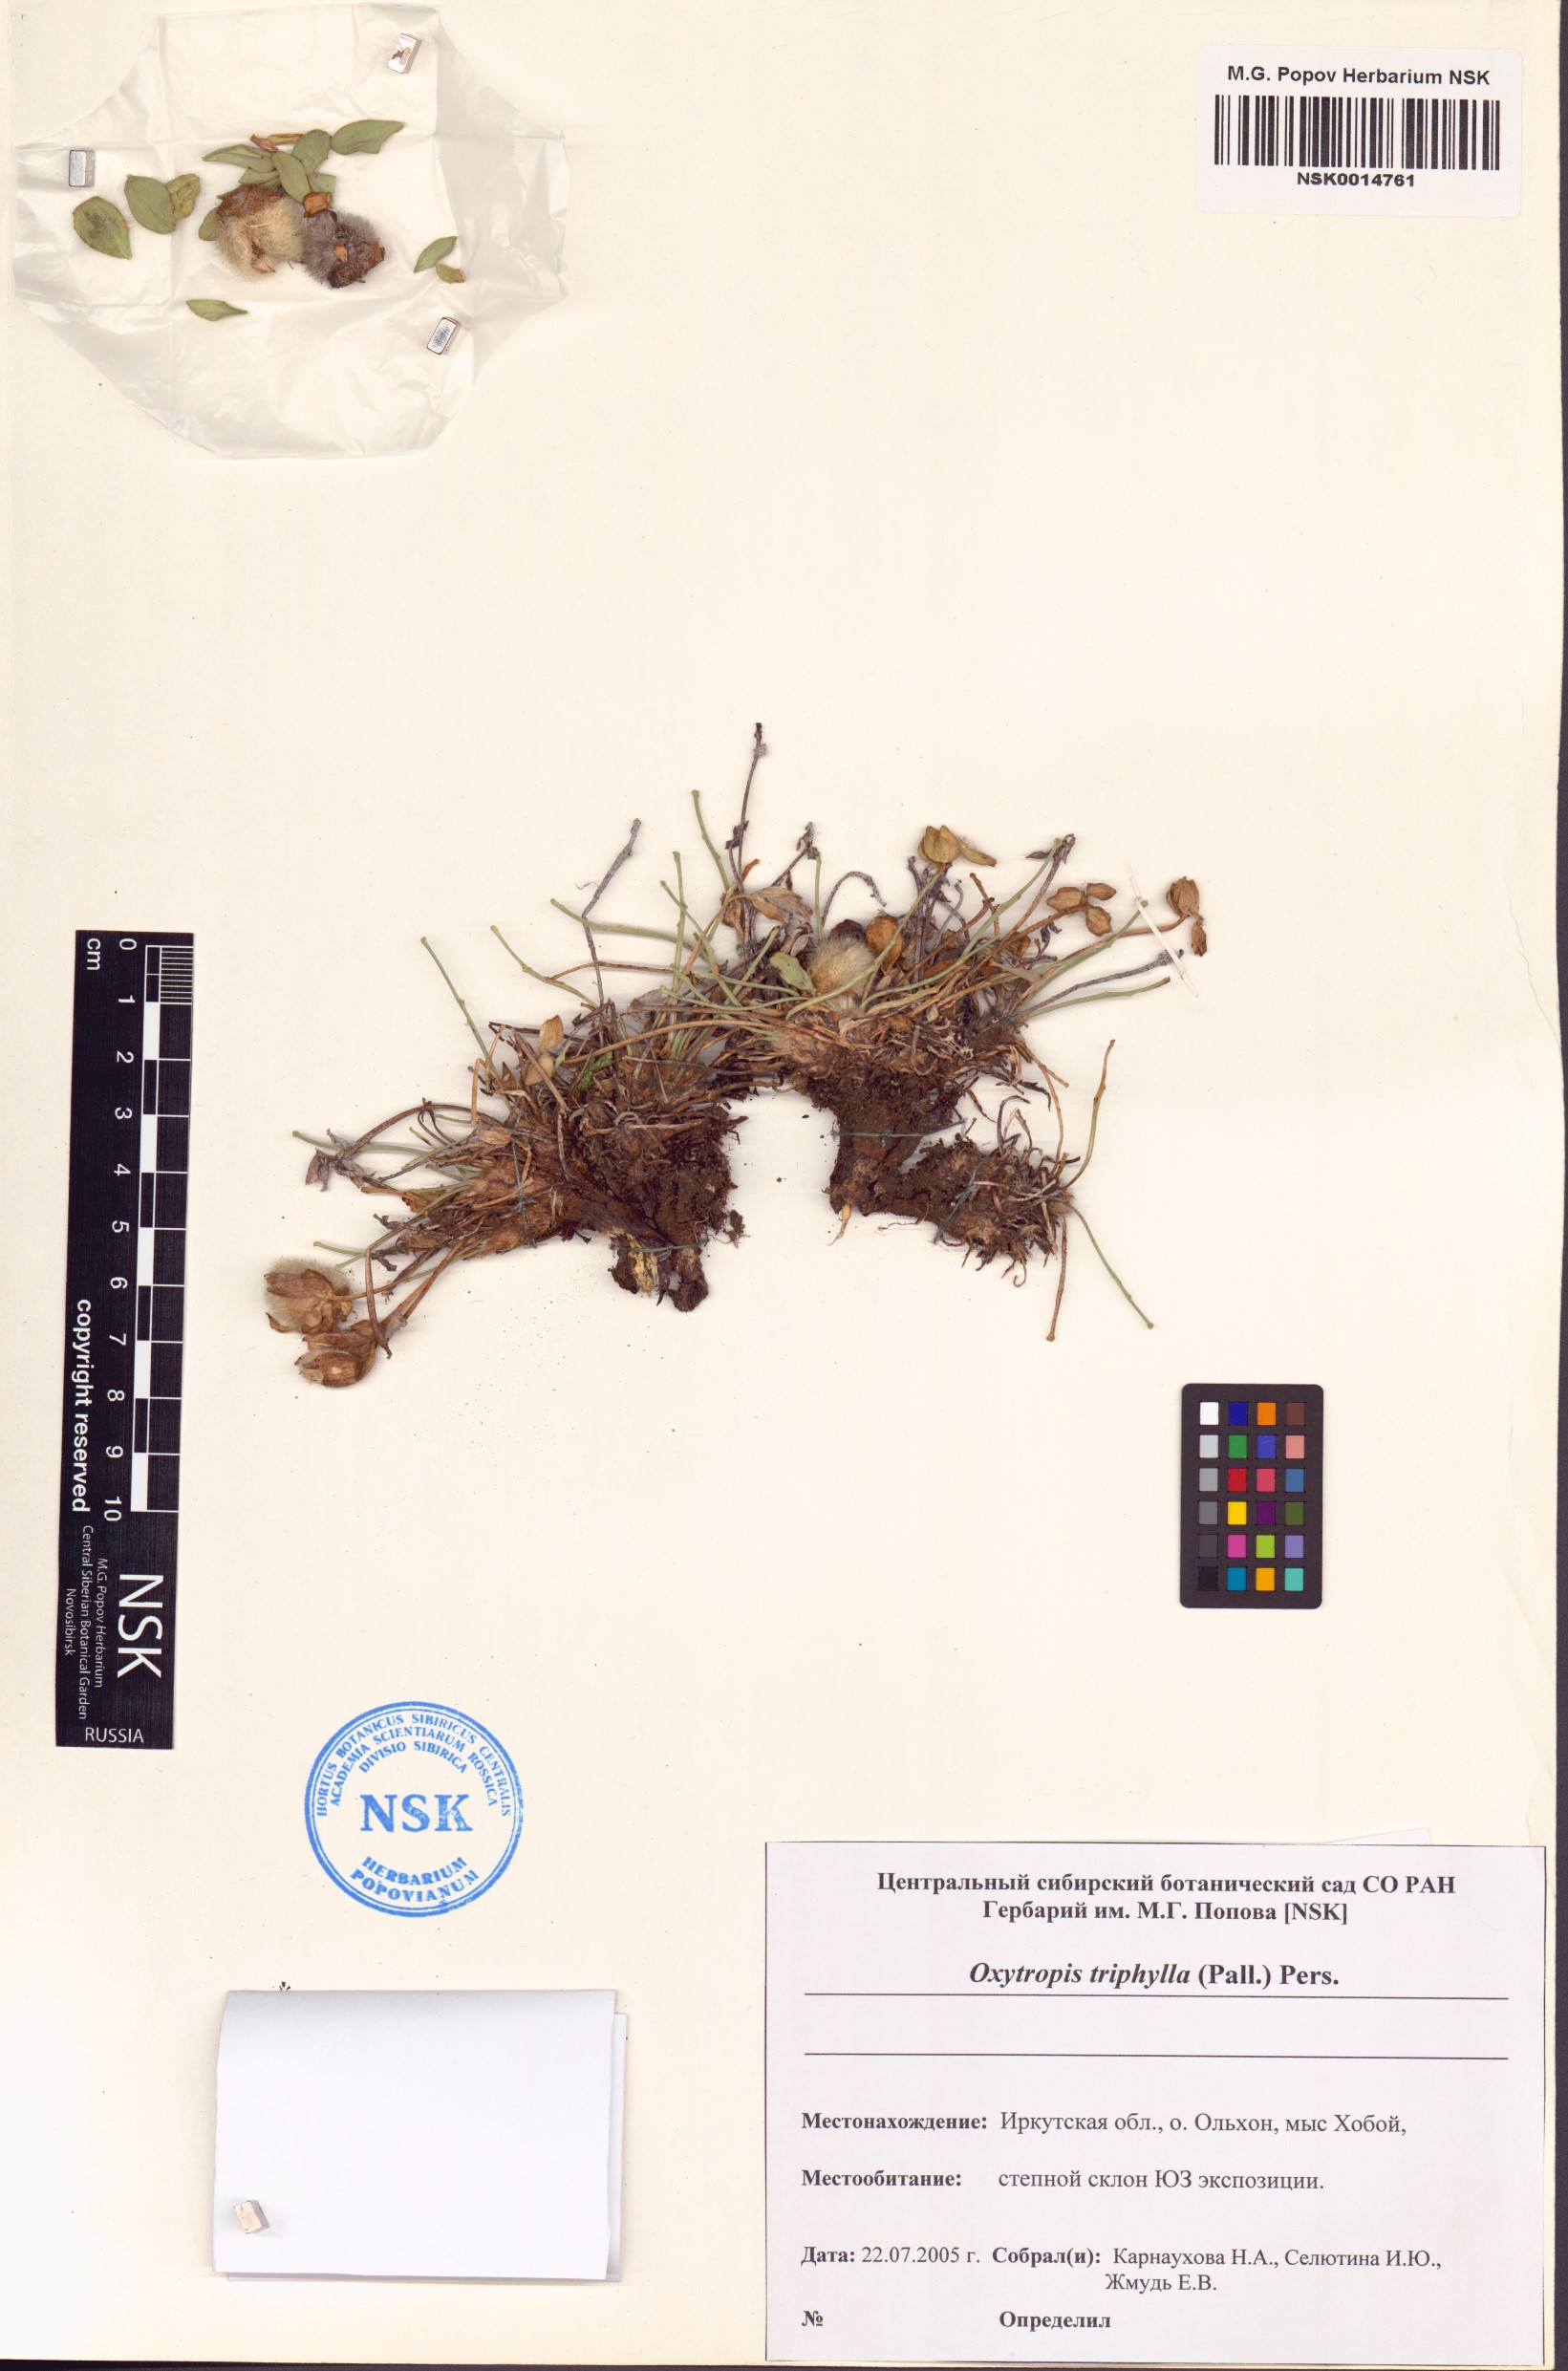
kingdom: Plantae
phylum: Tracheophyta
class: Magnoliopsida
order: Fabales
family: Fabaceae
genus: Oxytropis
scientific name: Oxytropis triphylla
